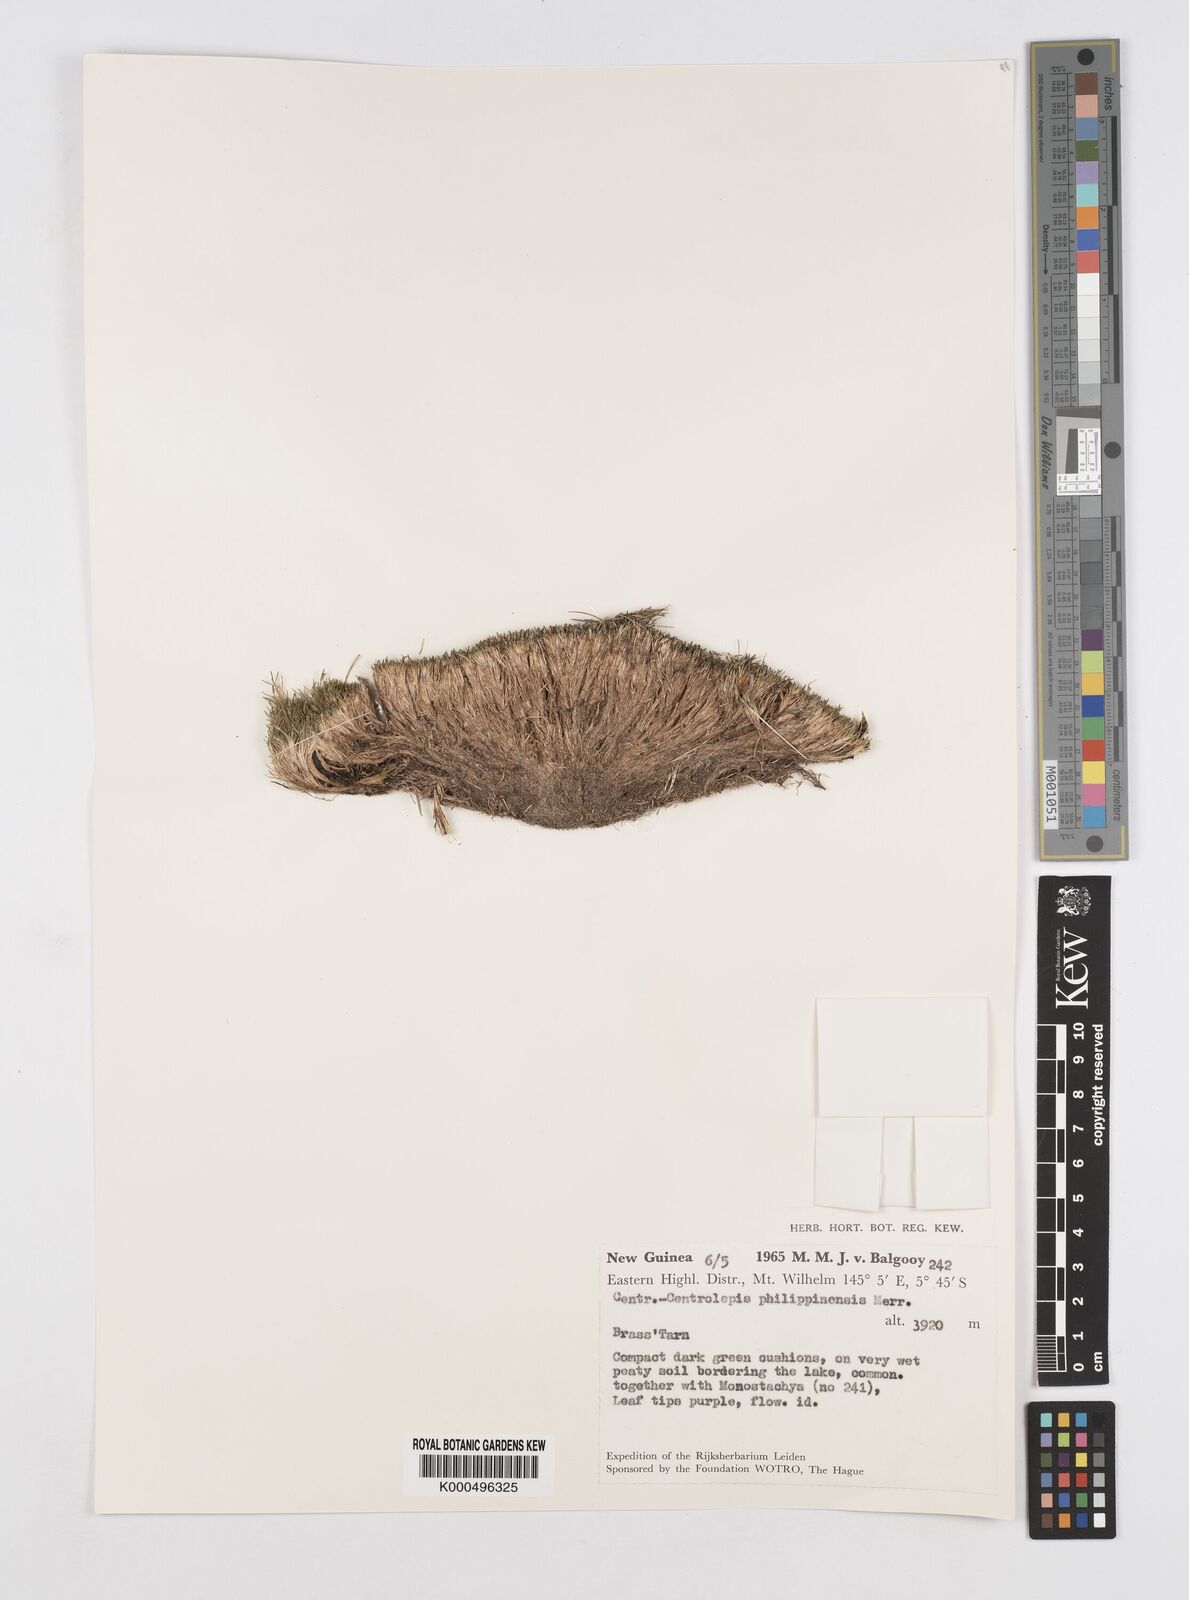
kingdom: Plantae
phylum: Tracheophyta
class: Liliopsida
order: Poales
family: Restionaceae
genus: Centrolepis
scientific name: Centrolepis philippinensis
